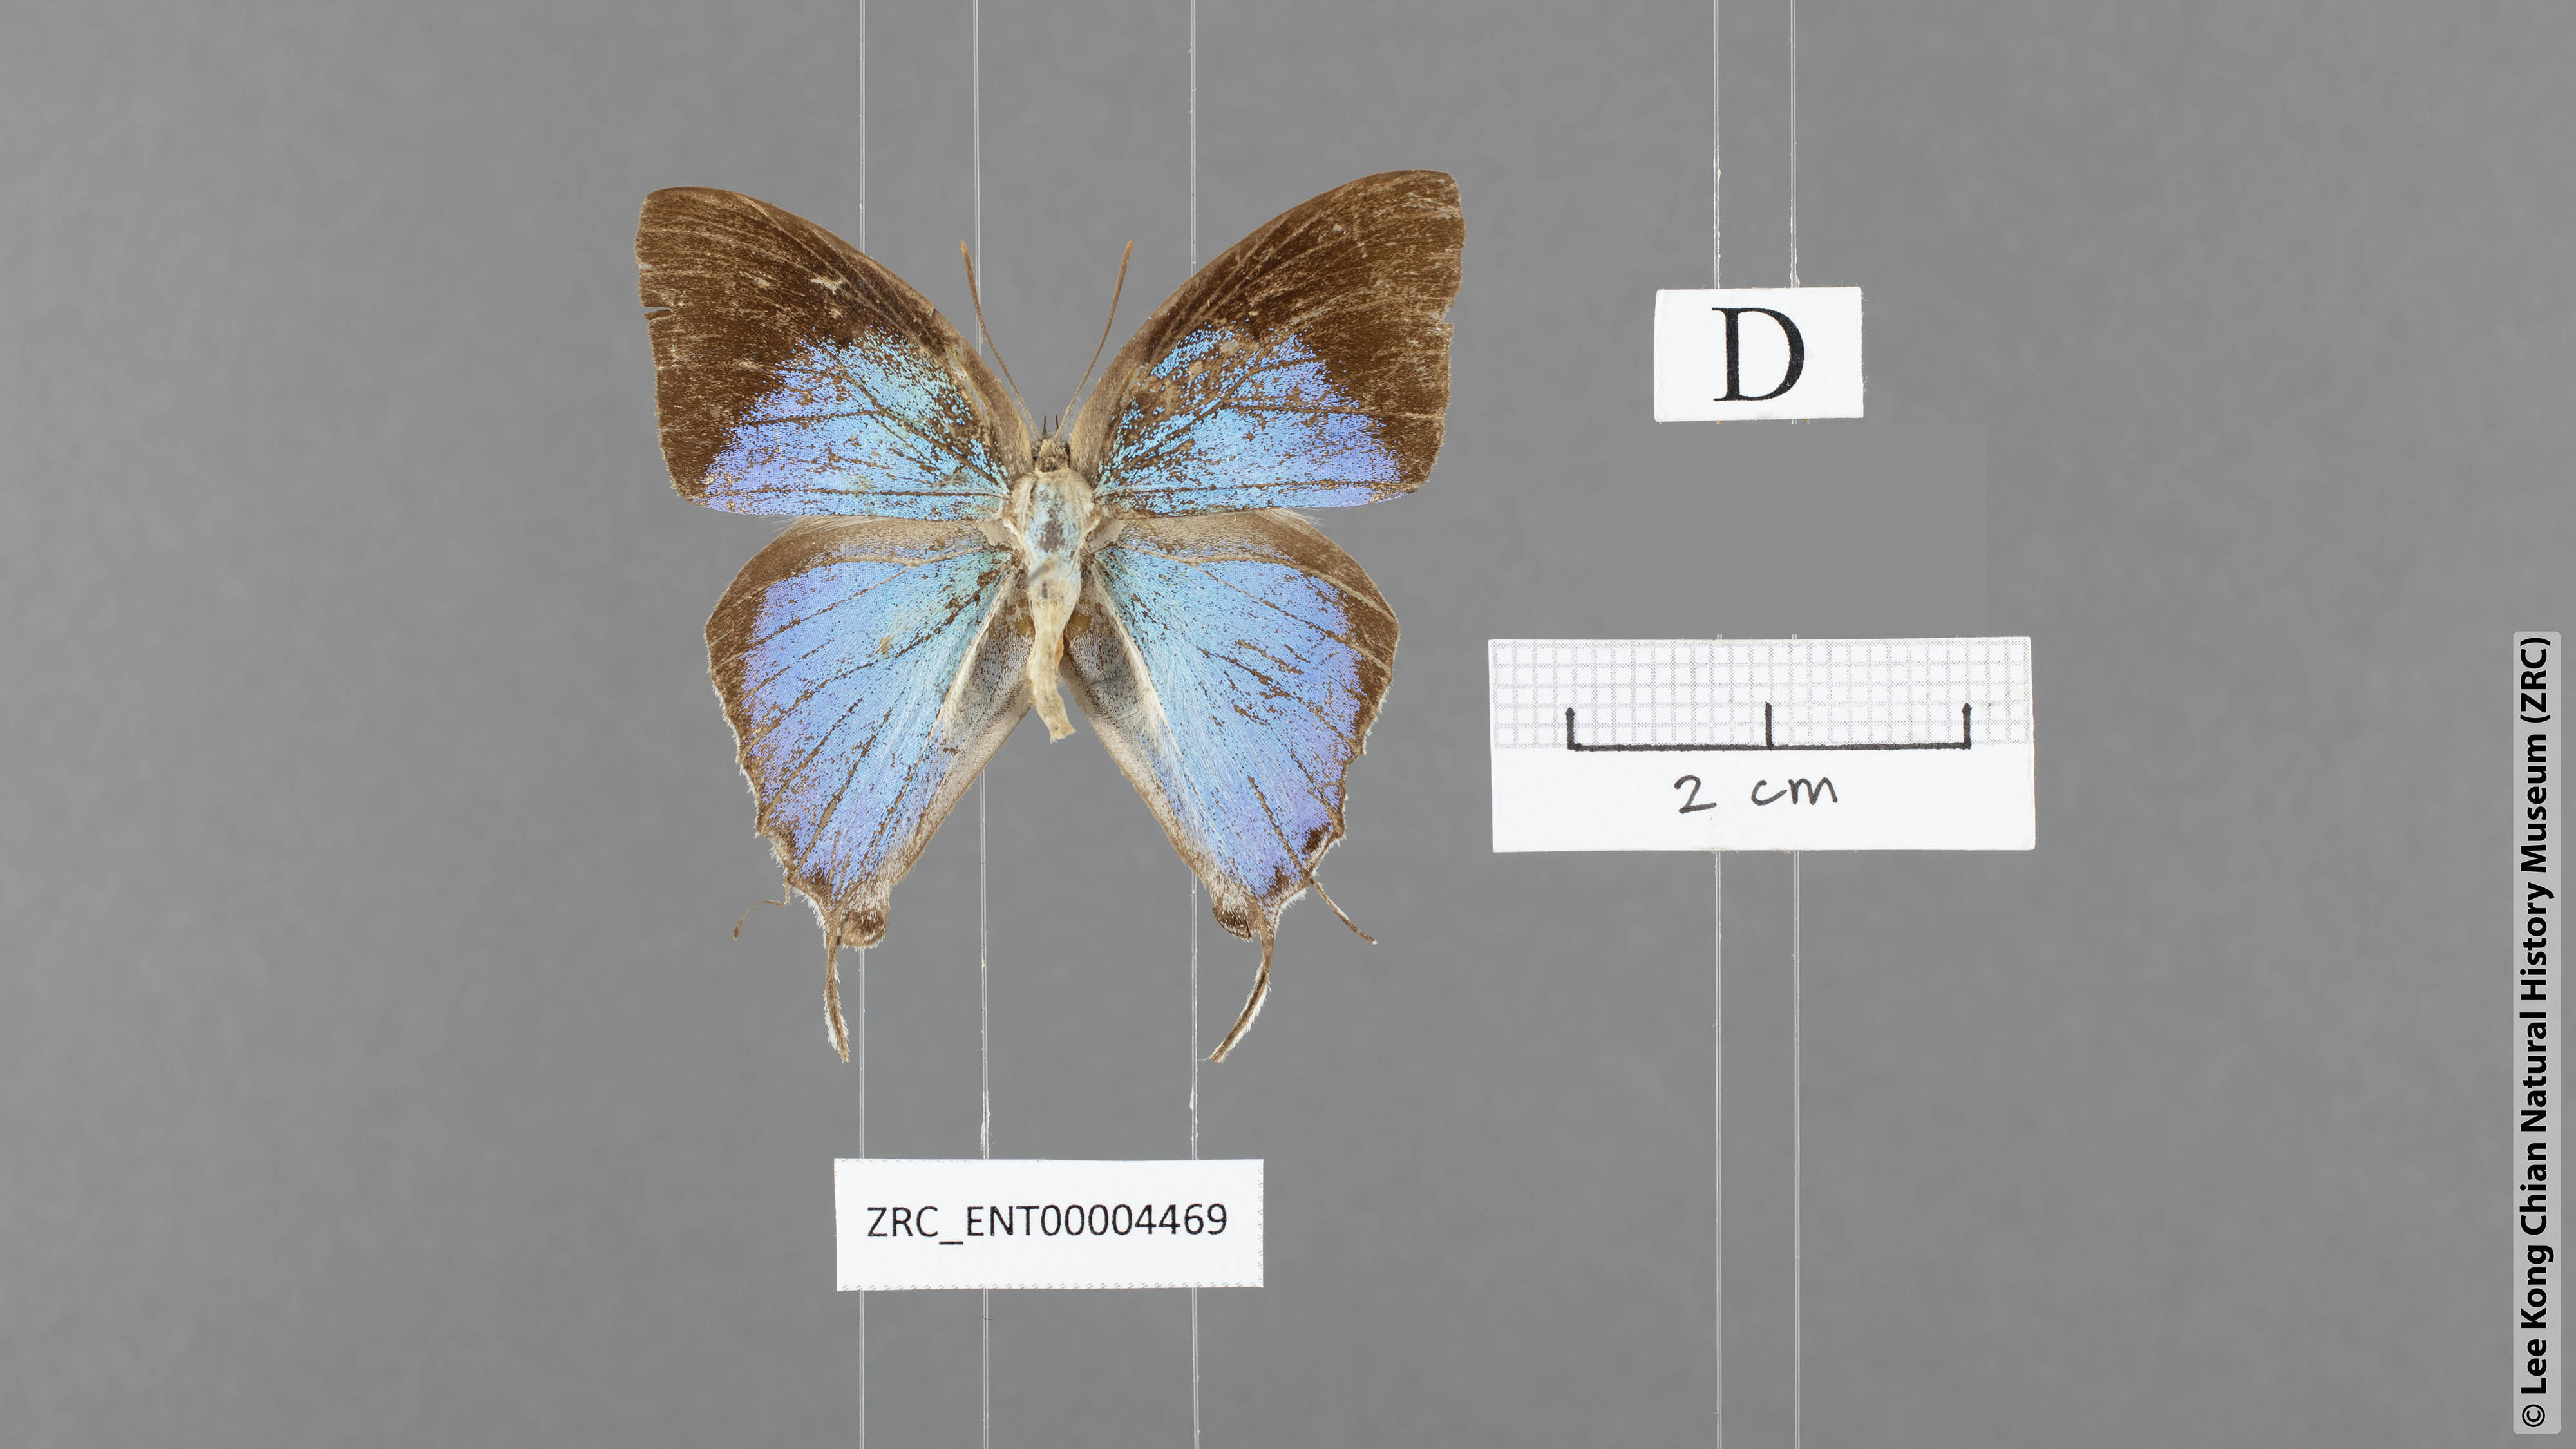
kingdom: Animalia
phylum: Arthropoda
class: Insecta
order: Lepidoptera
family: Lycaenidae
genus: Purlisa
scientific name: Purlisa giganteus
